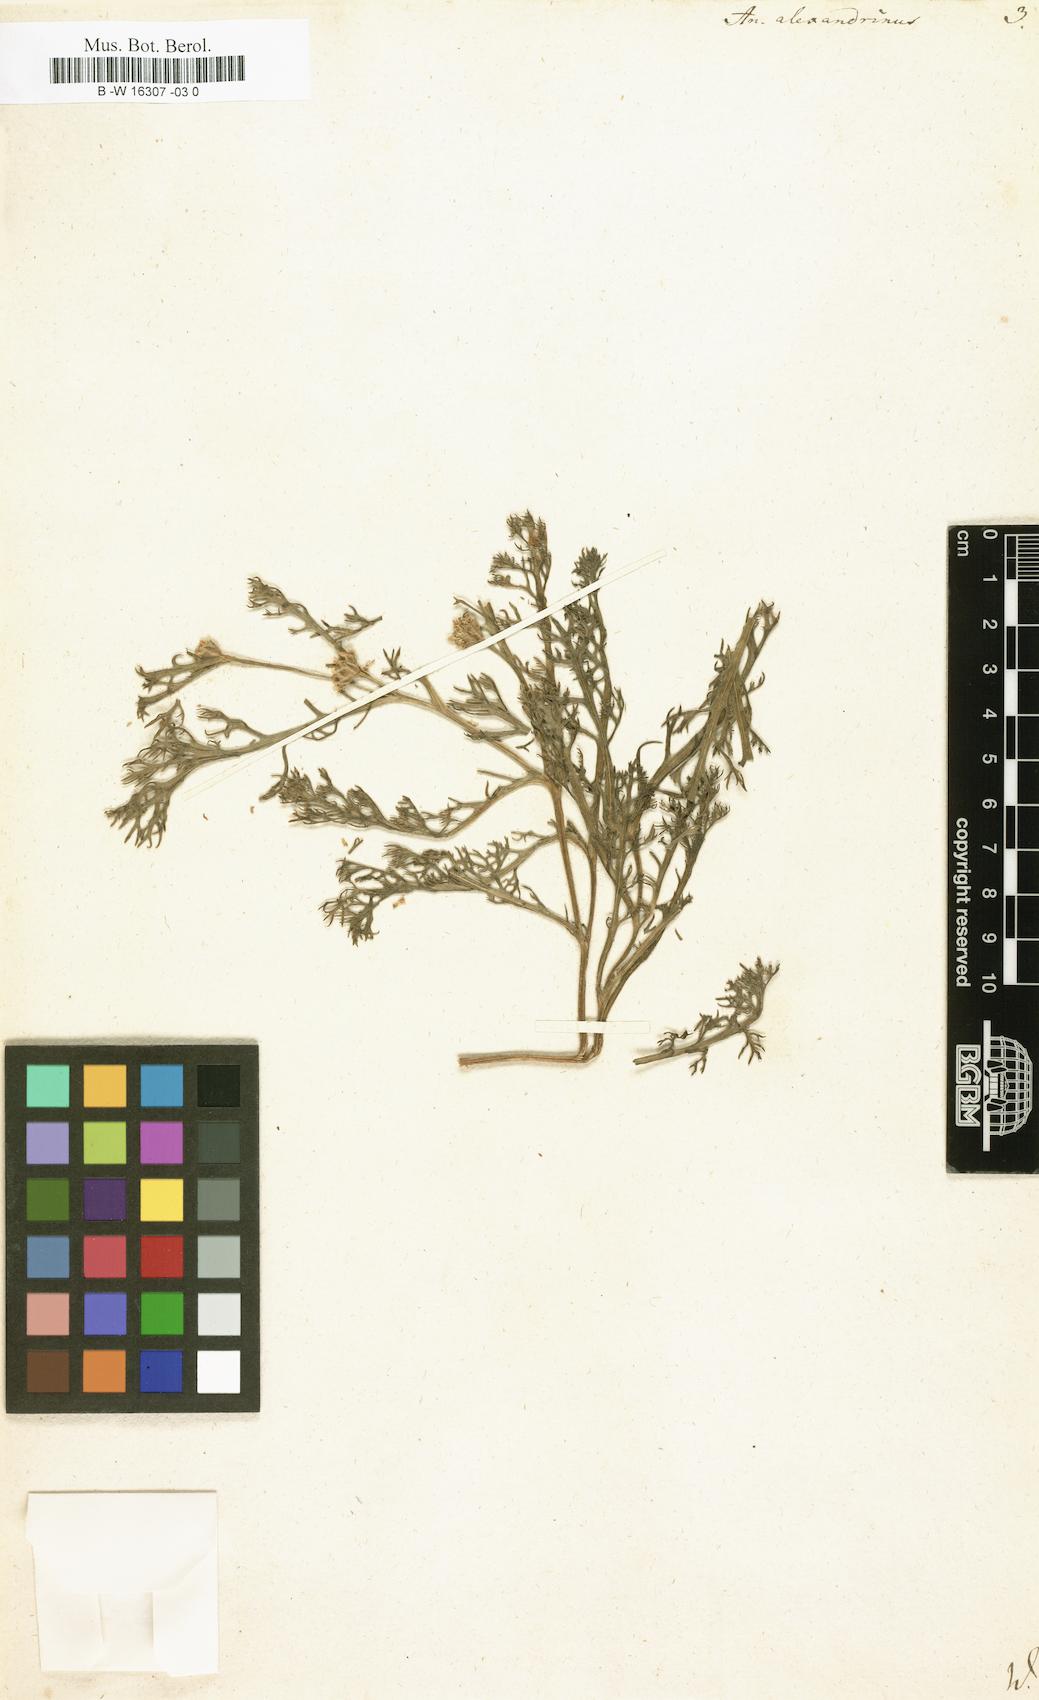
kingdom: Plantae
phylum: Tracheophyta
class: Magnoliopsida
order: Asterales
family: Asteraceae
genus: Anacyclus
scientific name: Anacyclus monanthos
